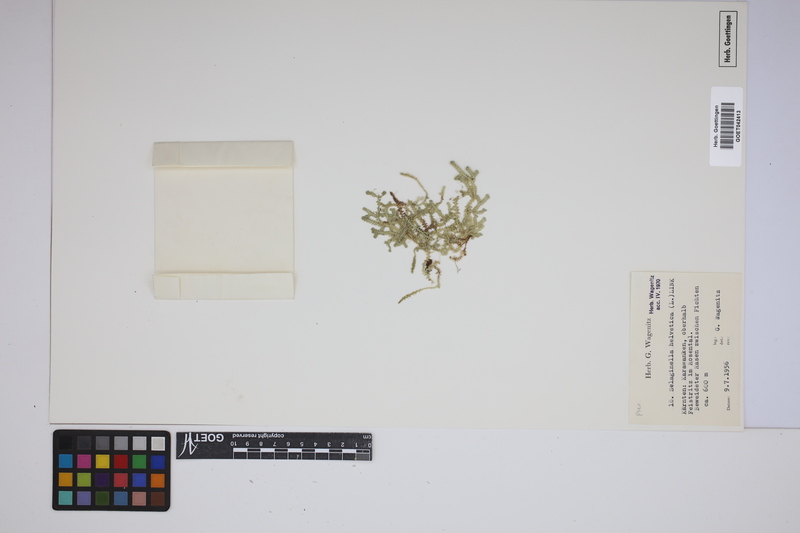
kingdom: Plantae
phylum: Tracheophyta
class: Lycopodiopsida
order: Selaginellales
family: Selaginellaceae
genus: Selaginella
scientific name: Selaginella helvetica
